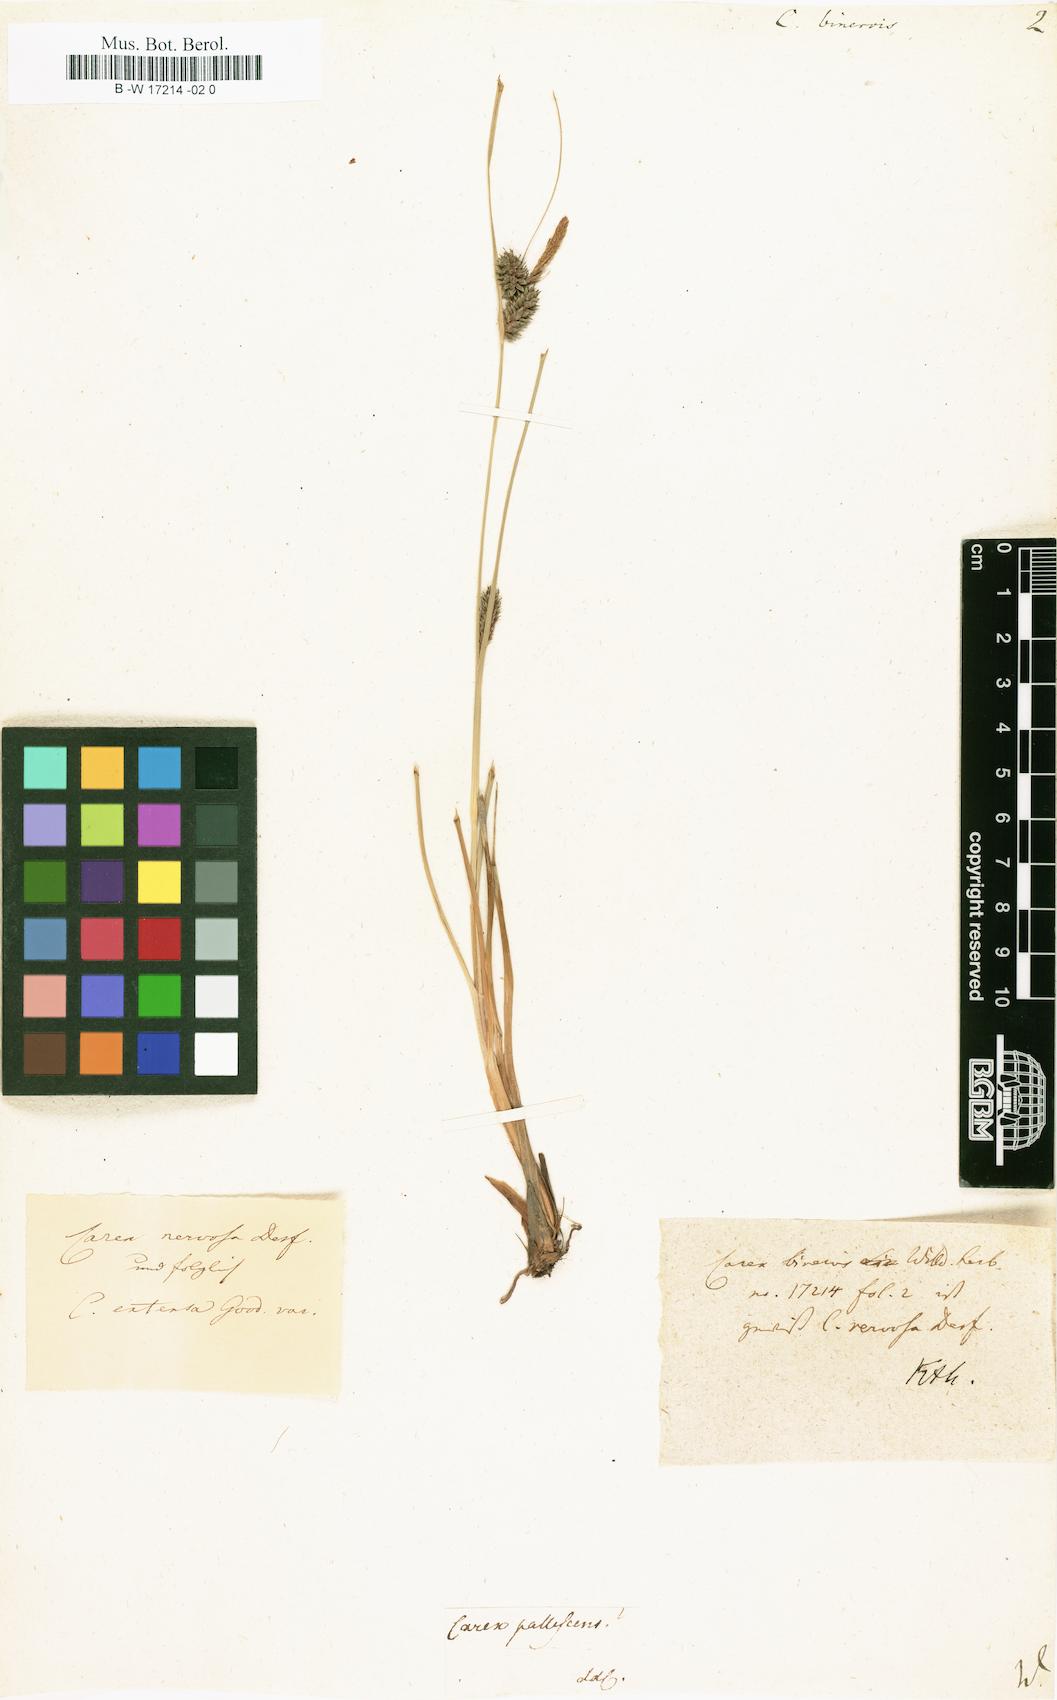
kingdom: Plantae
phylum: Tracheophyta
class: Liliopsida
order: Poales
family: Cyperaceae
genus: Carex
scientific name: Carex binervis
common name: Green-ribbed sedge
